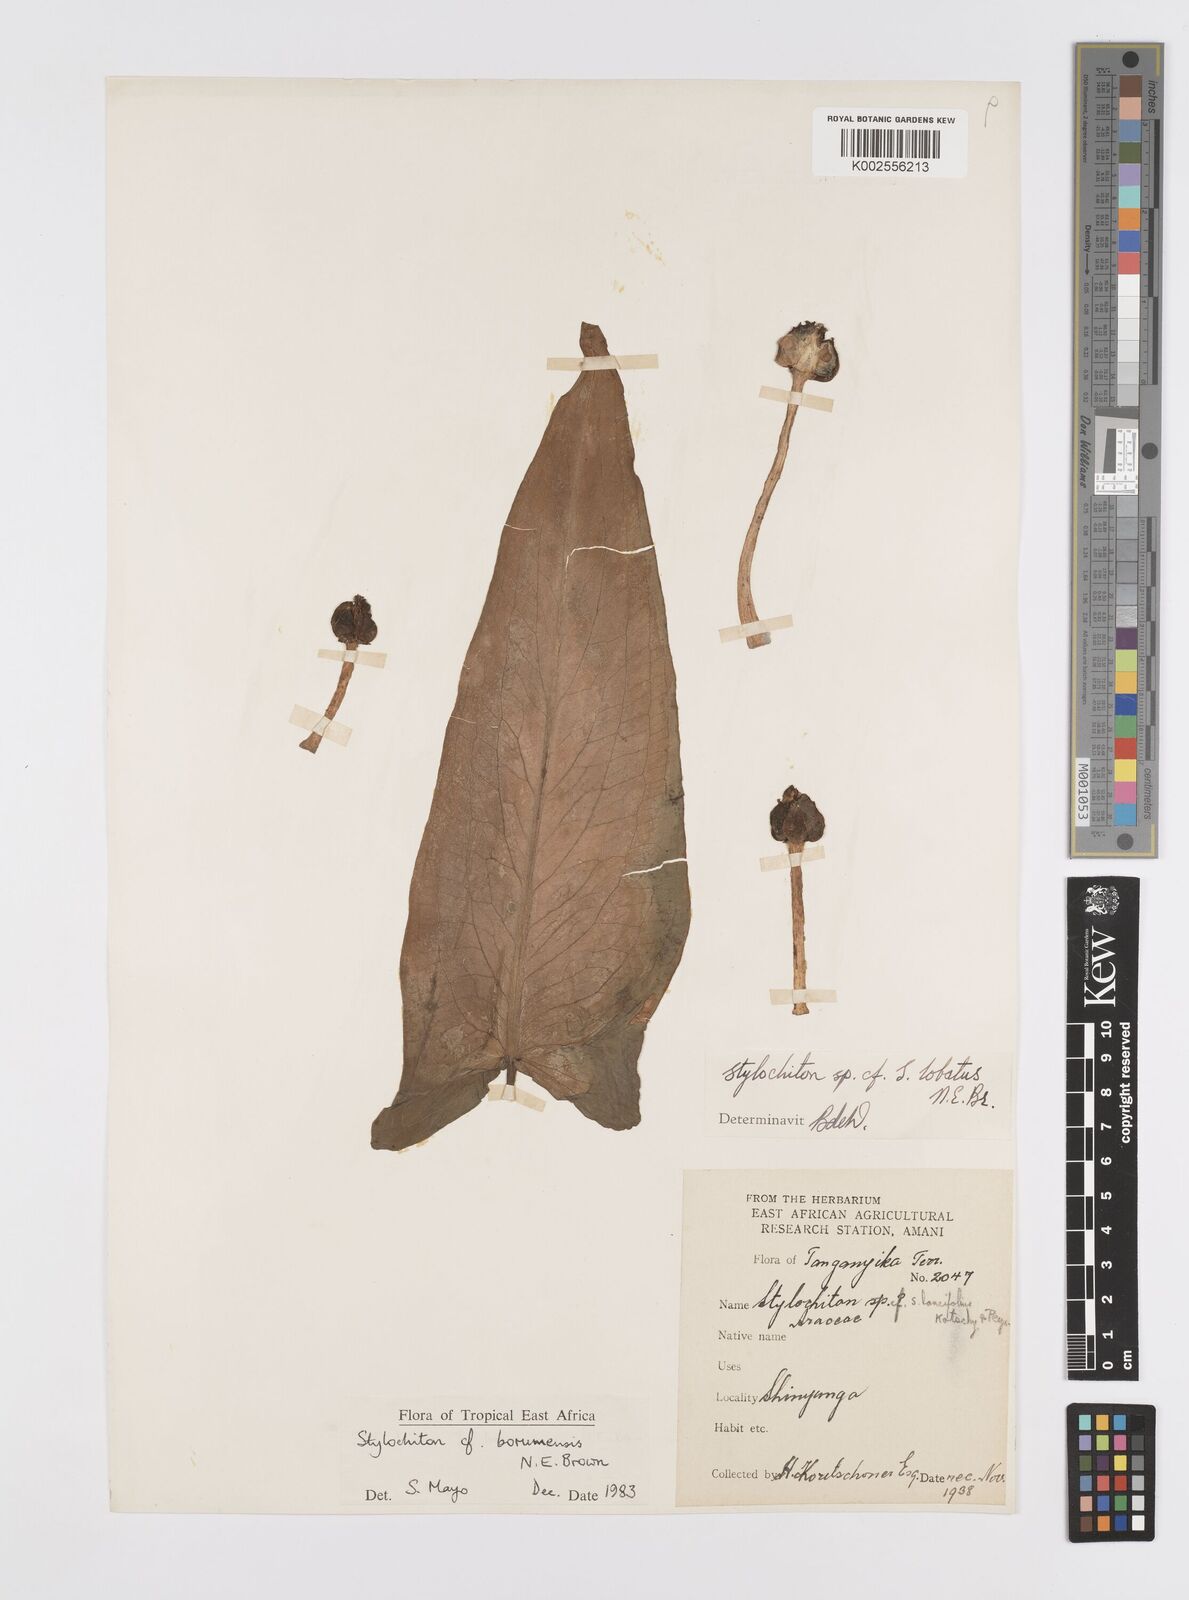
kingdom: Plantae
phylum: Tracheophyta
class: Liliopsida
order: Alismatales
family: Araceae
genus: Stylochaeton
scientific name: Stylochaeton borumense
